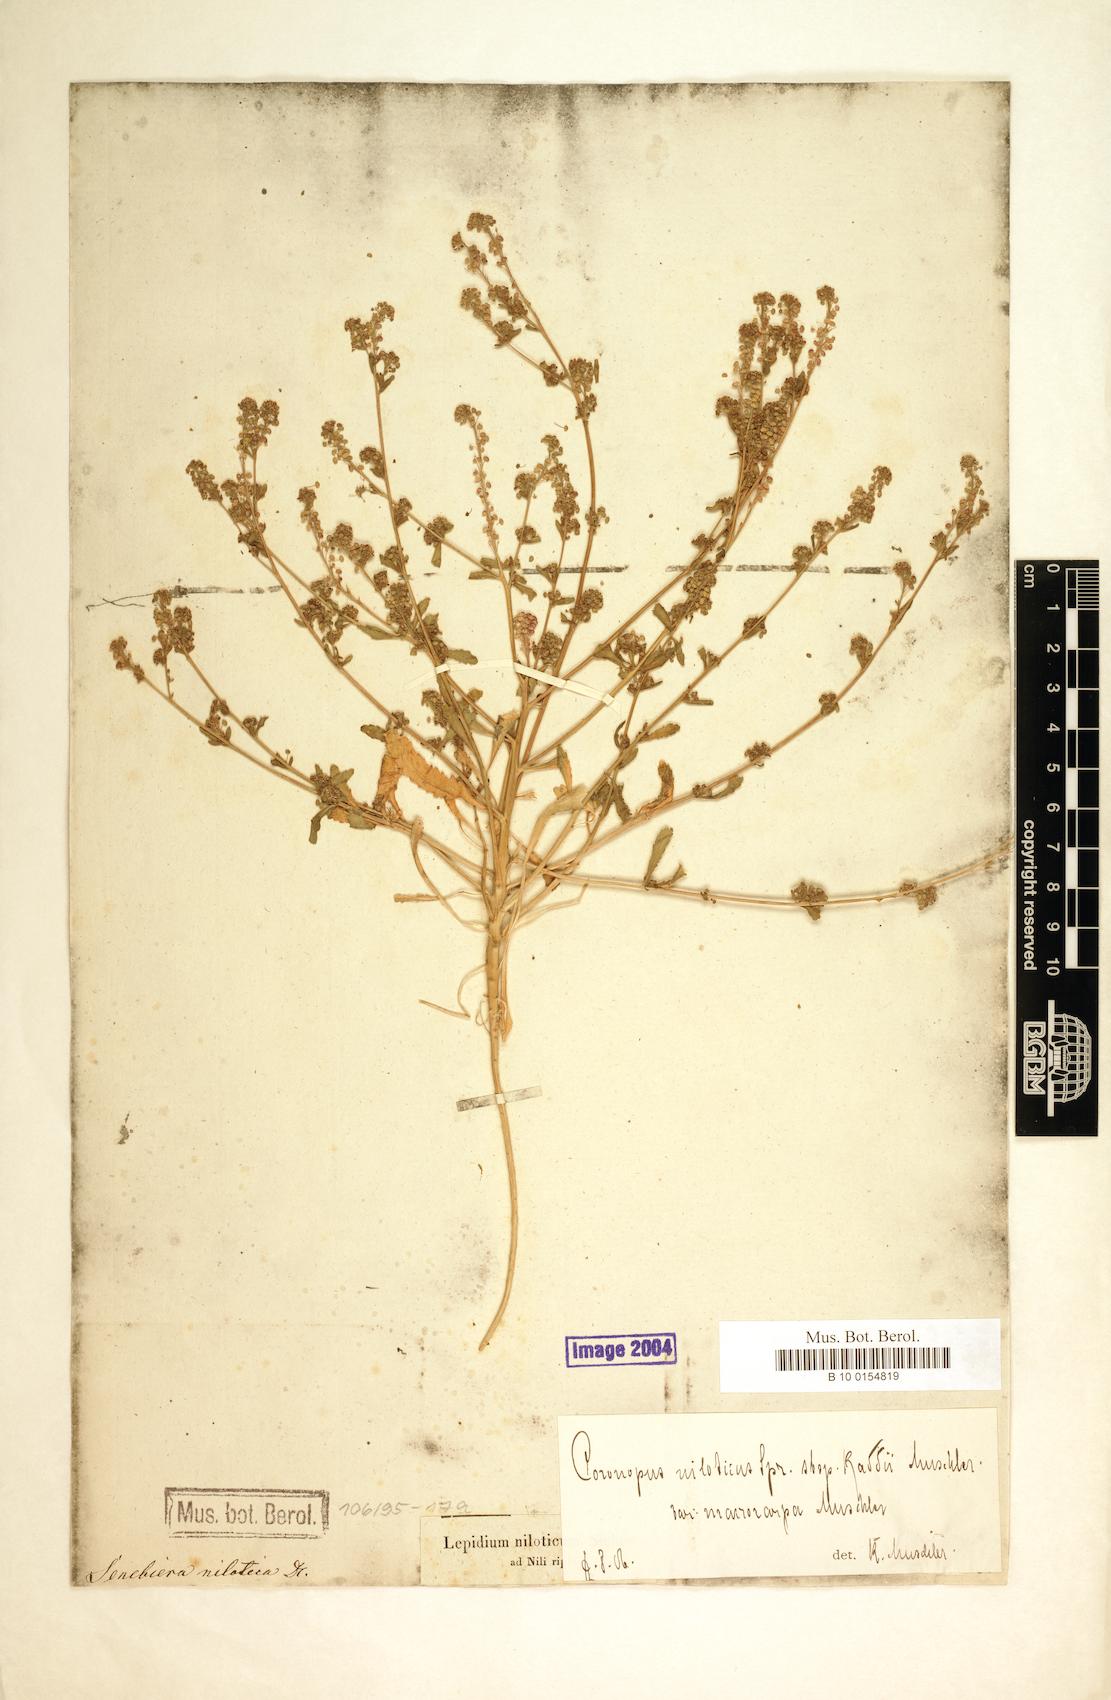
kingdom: Plantae
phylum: Tracheophyta
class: Magnoliopsida
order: Brassicales
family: Brassicaceae
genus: Lepidium
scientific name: Lepidium niloticum
